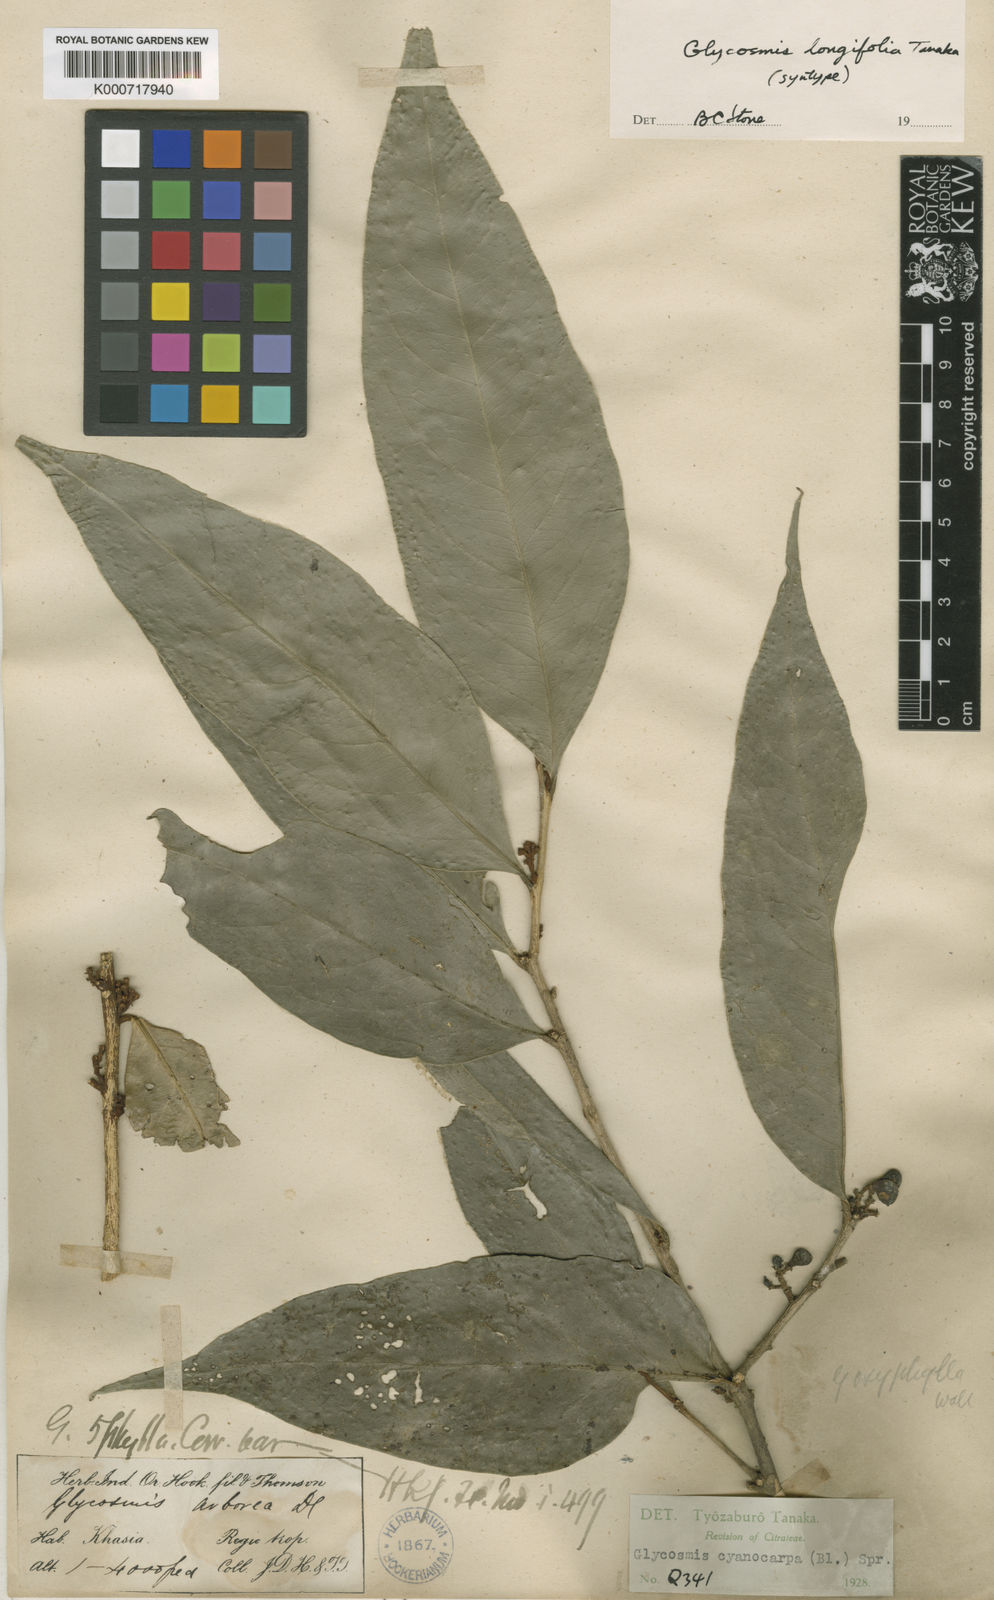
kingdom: Plantae
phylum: Tracheophyta
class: Magnoliopsida
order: Sapindales
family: Rutaceae
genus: Glycosmis
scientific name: Glycosmis cyanocarpa
